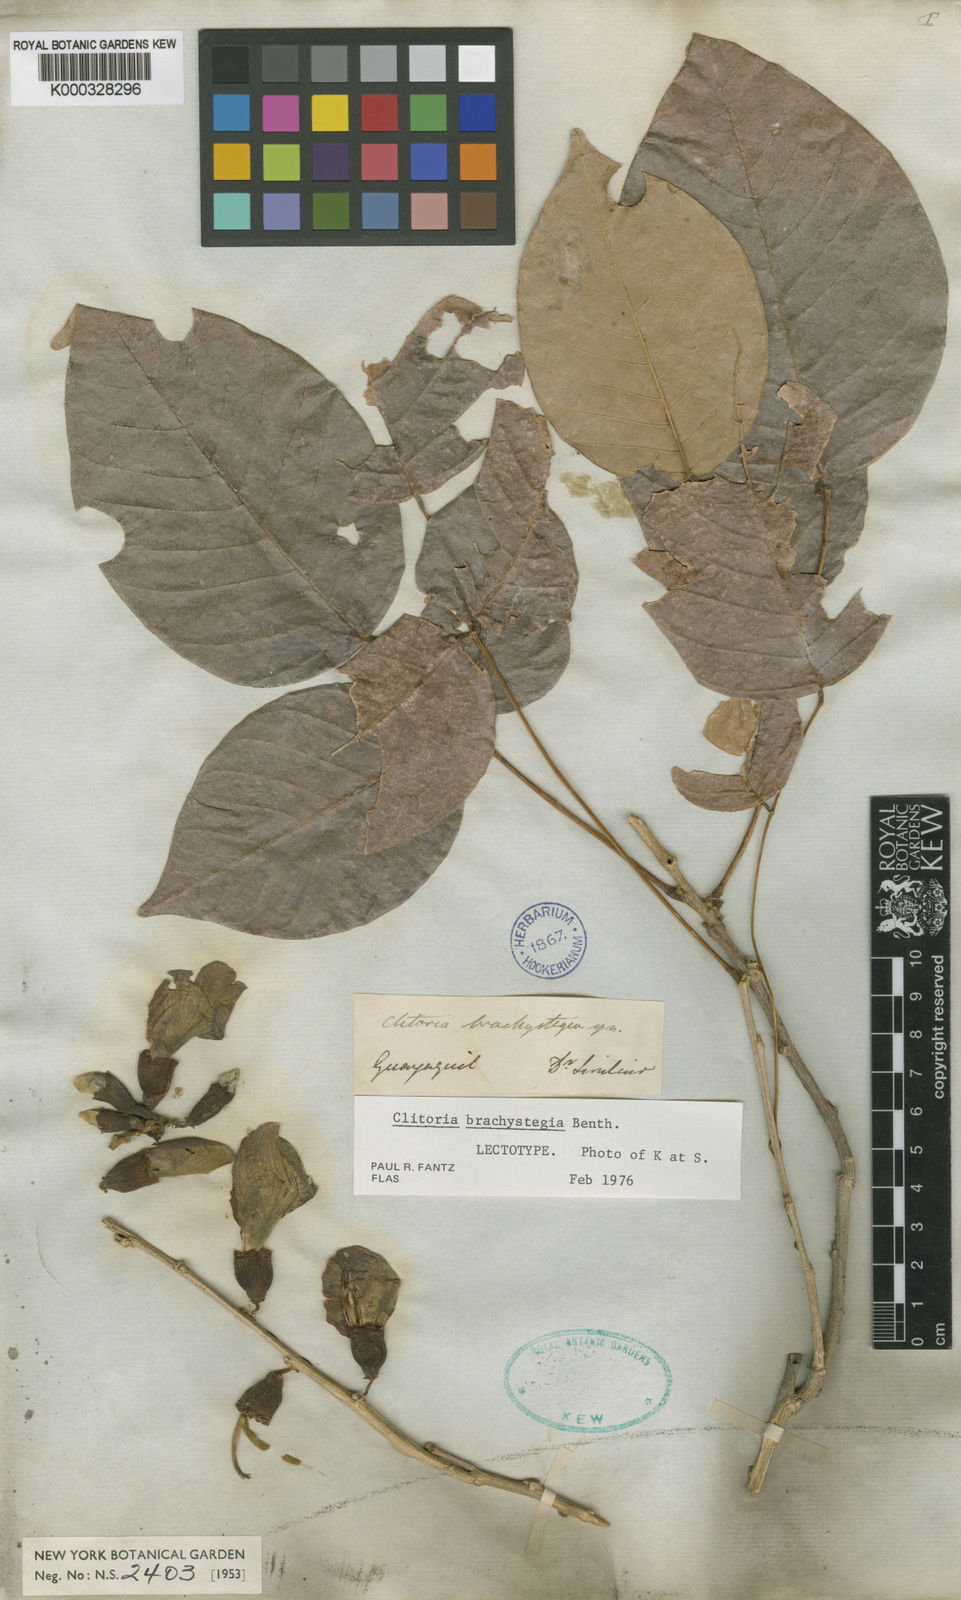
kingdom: Plantae
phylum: Tracheophyta
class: Magnoliopsida
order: Fabales
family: Fabaceae
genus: Clitoria
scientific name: Clitoria brachystegia
